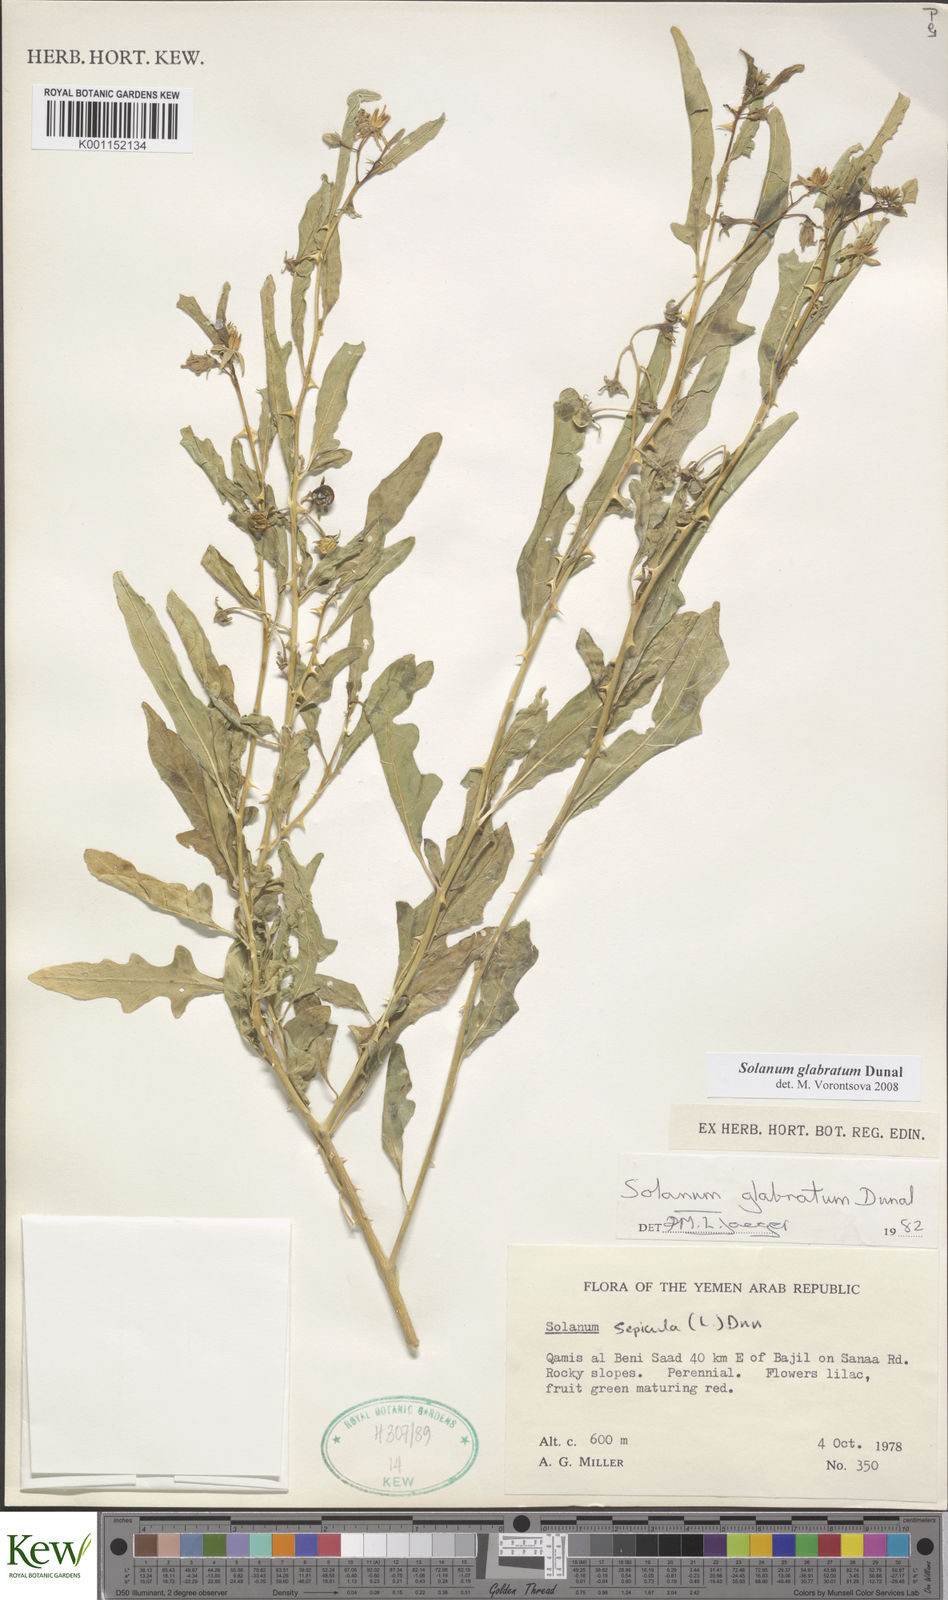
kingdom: Plantae
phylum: Tracheophyta
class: Magnoliopsida
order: Solanales
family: Solanaceae
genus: Solanum
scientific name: Solanum glabratum
